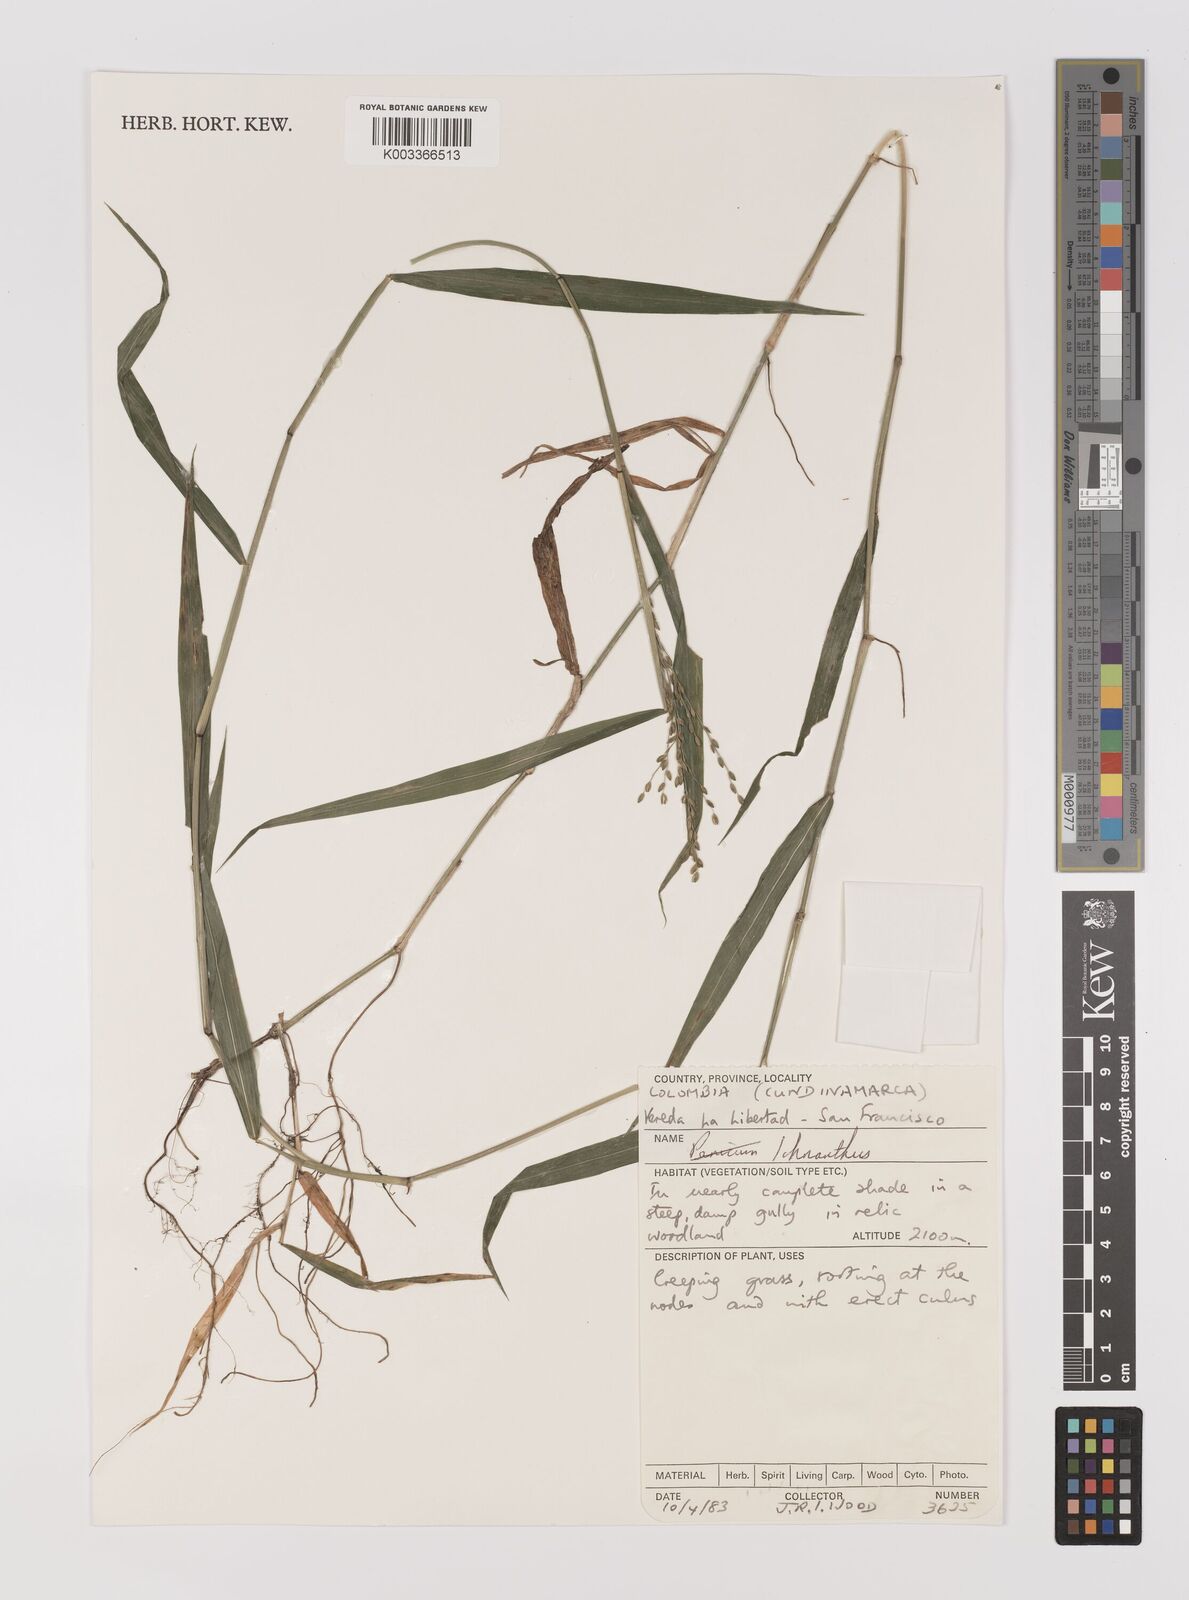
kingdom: Plantae
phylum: Tracheophyta
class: Liliopsida
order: Poales
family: Poaceae
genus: Ichnanthus
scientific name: Ichnanthus
